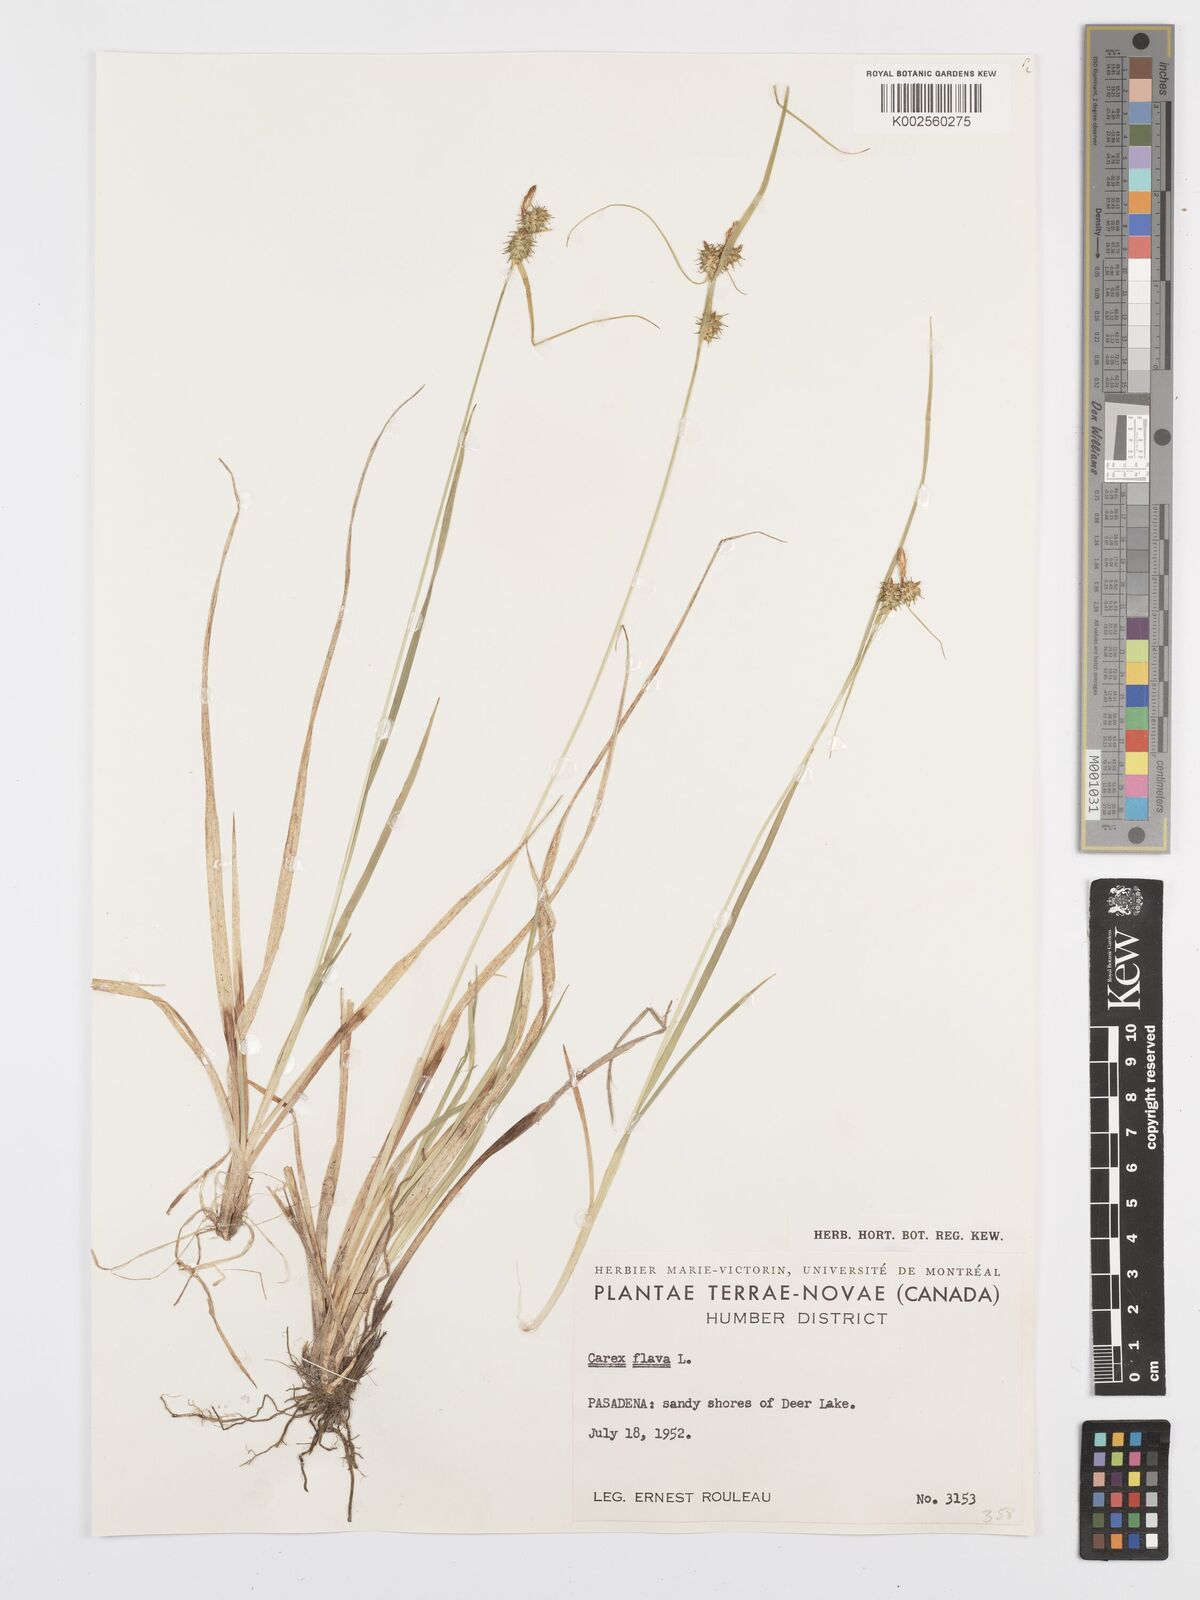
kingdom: Plantae
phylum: Tracheophyta
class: Liliopsida
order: Poales
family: Cyperaceae
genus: Carex
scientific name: Carex flava
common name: Large yellow-sedge
